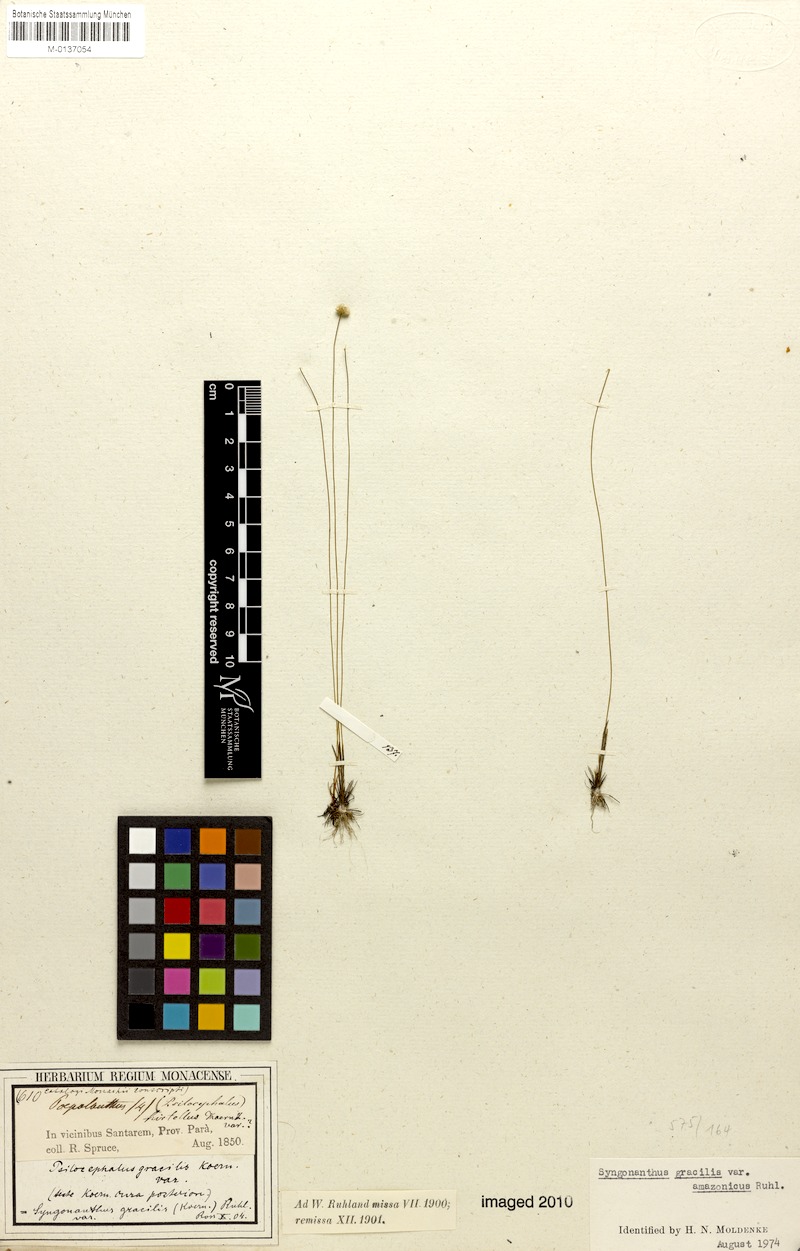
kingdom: Plantae
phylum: Tracheophyta
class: Liliopsida
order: Poales
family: Eriocaulaceae
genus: Syngonanthus
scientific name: Syngonanthus gracilis
